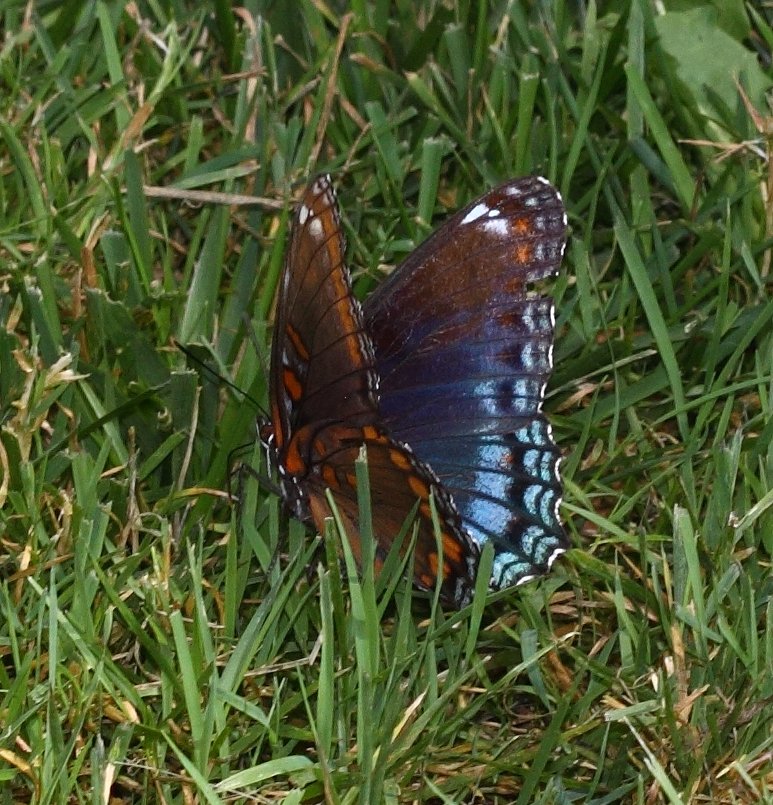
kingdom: Animalia
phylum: Arthropoda
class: Insecta
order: Lepidoptera
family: Nymphalidae
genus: Limenitis
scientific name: Limenitis astyanax
